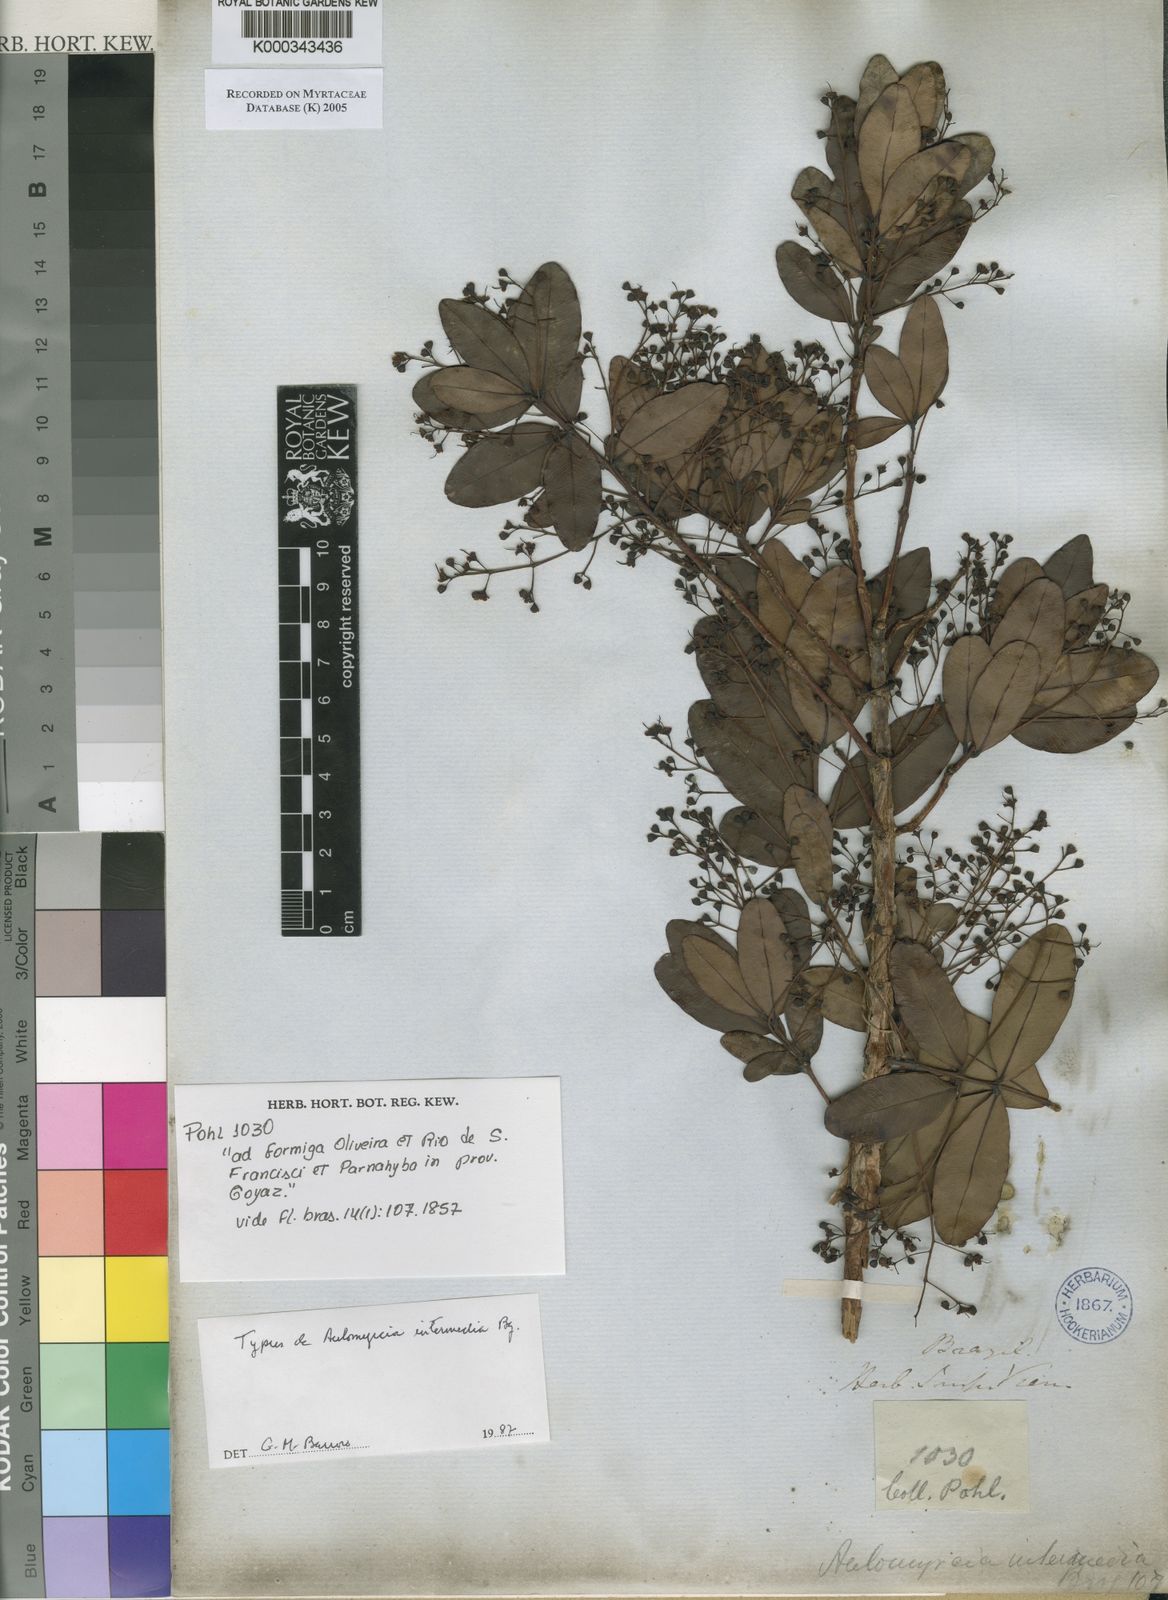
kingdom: Plantae
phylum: Tracheophyta
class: Magnoliopsida
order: Myrtales
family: Myrtaceae
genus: Myrcia
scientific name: Myrcia guianensis
